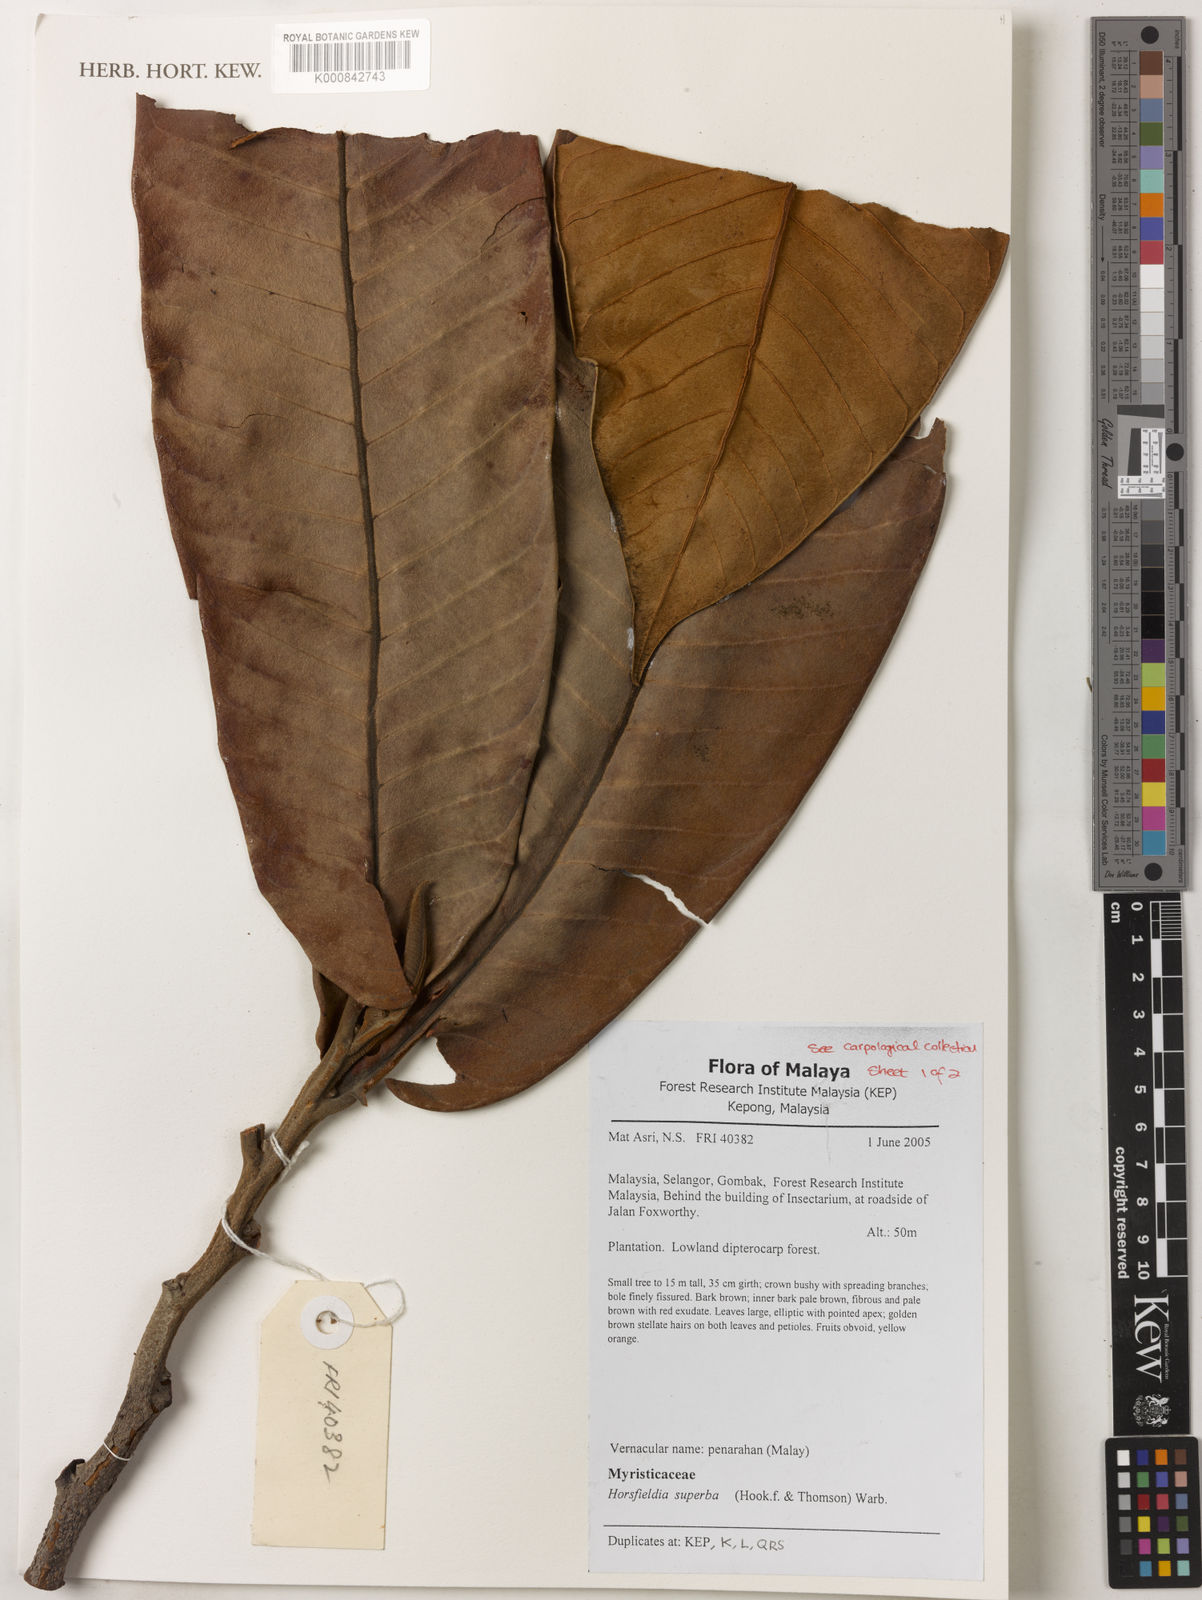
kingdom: Plantae
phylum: Tracheophyta
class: Magnoliopsida
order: Magnoliales
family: Myristicaceae
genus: Horsfieldia
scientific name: Horsfieldia superba
